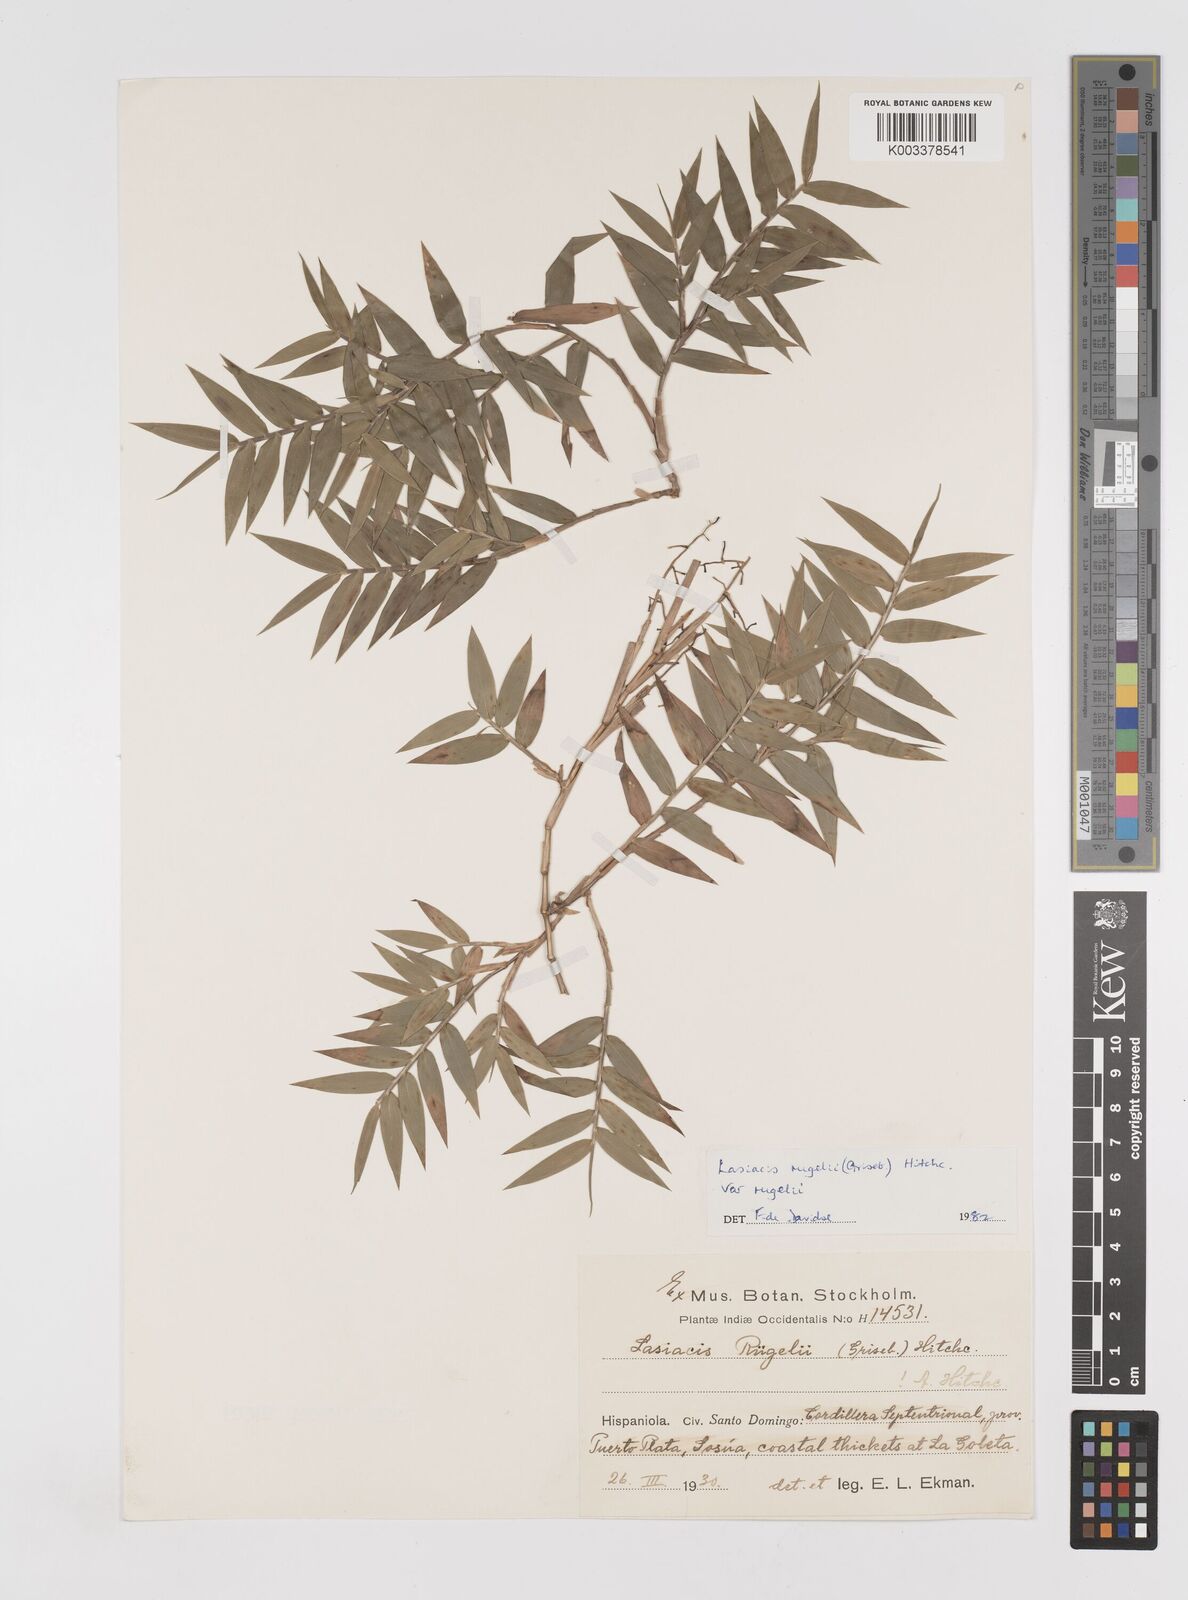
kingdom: Plantae
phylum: Tracheophyta
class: Liliopsida
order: Poales
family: Poaceae
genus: Lasiacis
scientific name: Lasiacis rugelii
